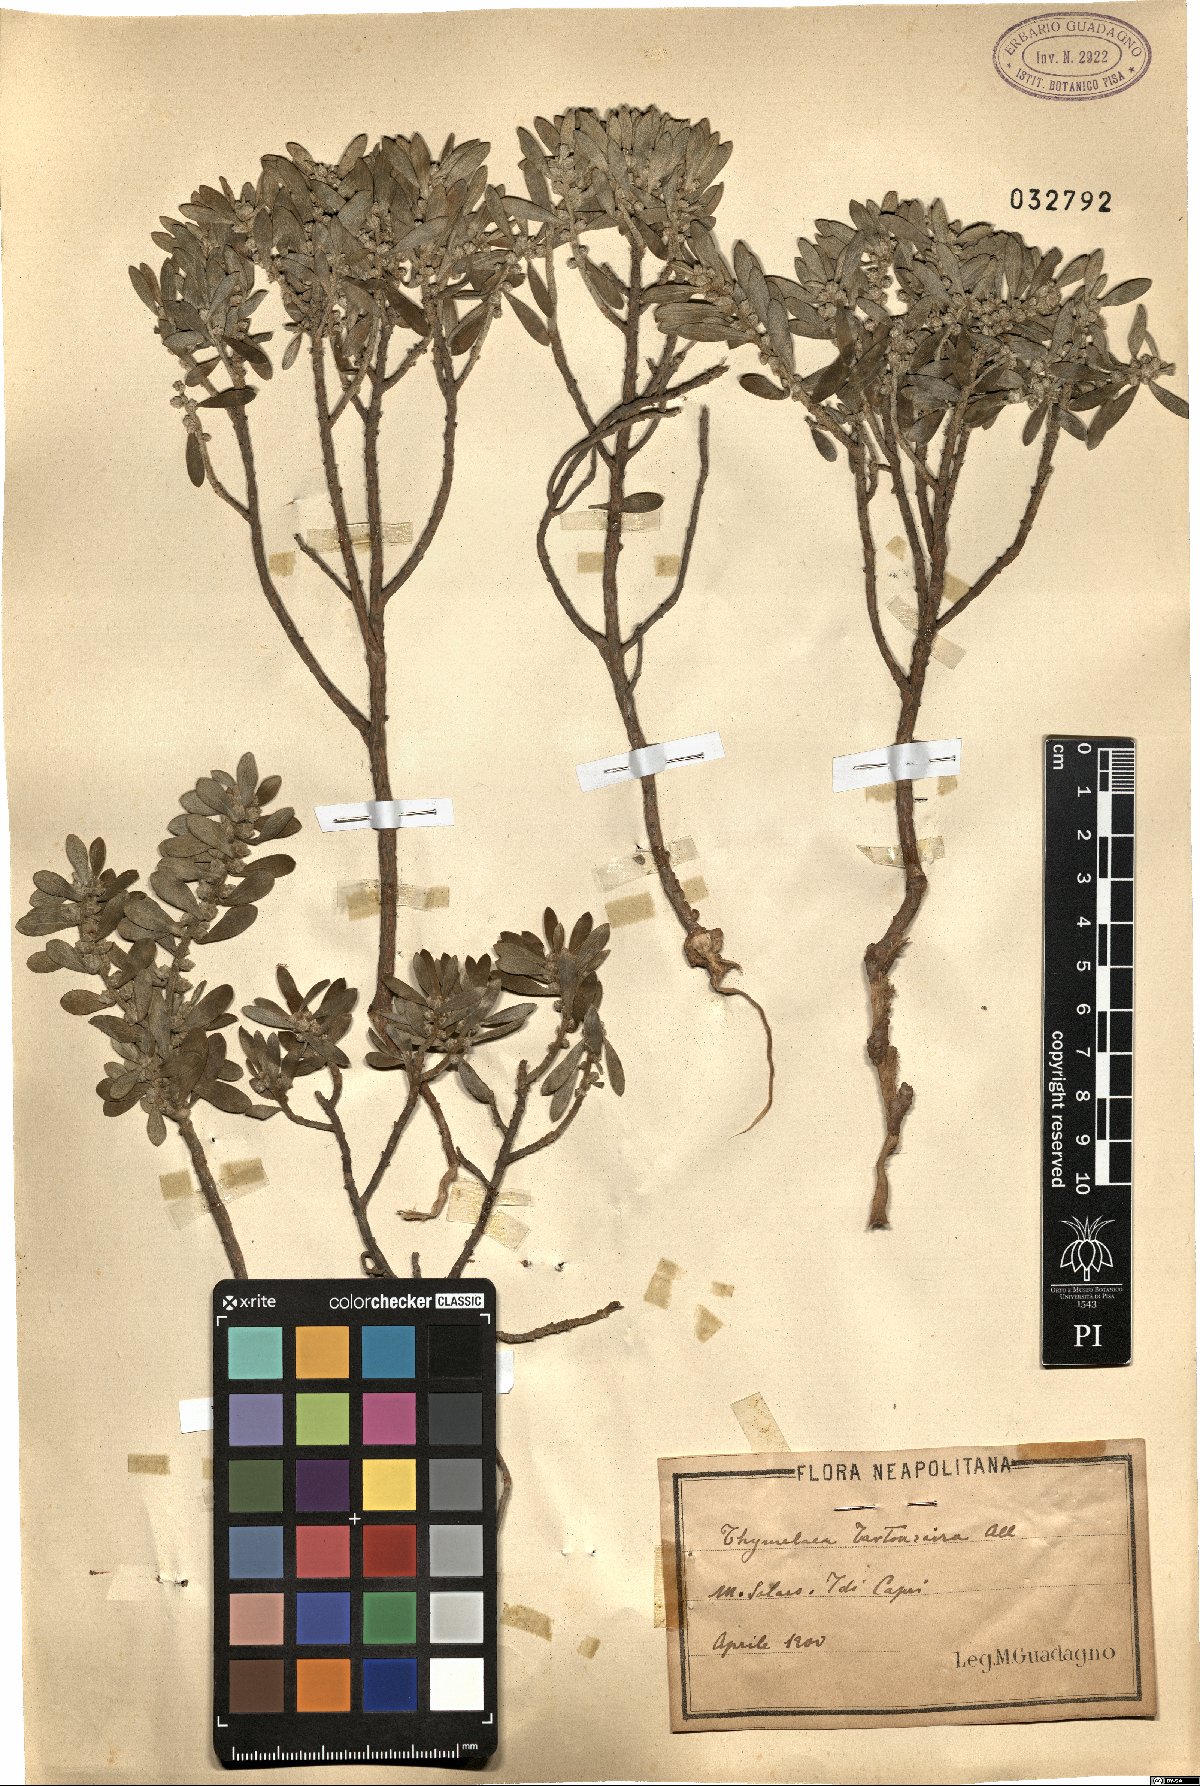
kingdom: Plantae
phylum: Tracheophyta
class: Magnoliopsida
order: Malvales
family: Thymelaeaceae
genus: Thymelaea
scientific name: Thymelaea tartonraira
